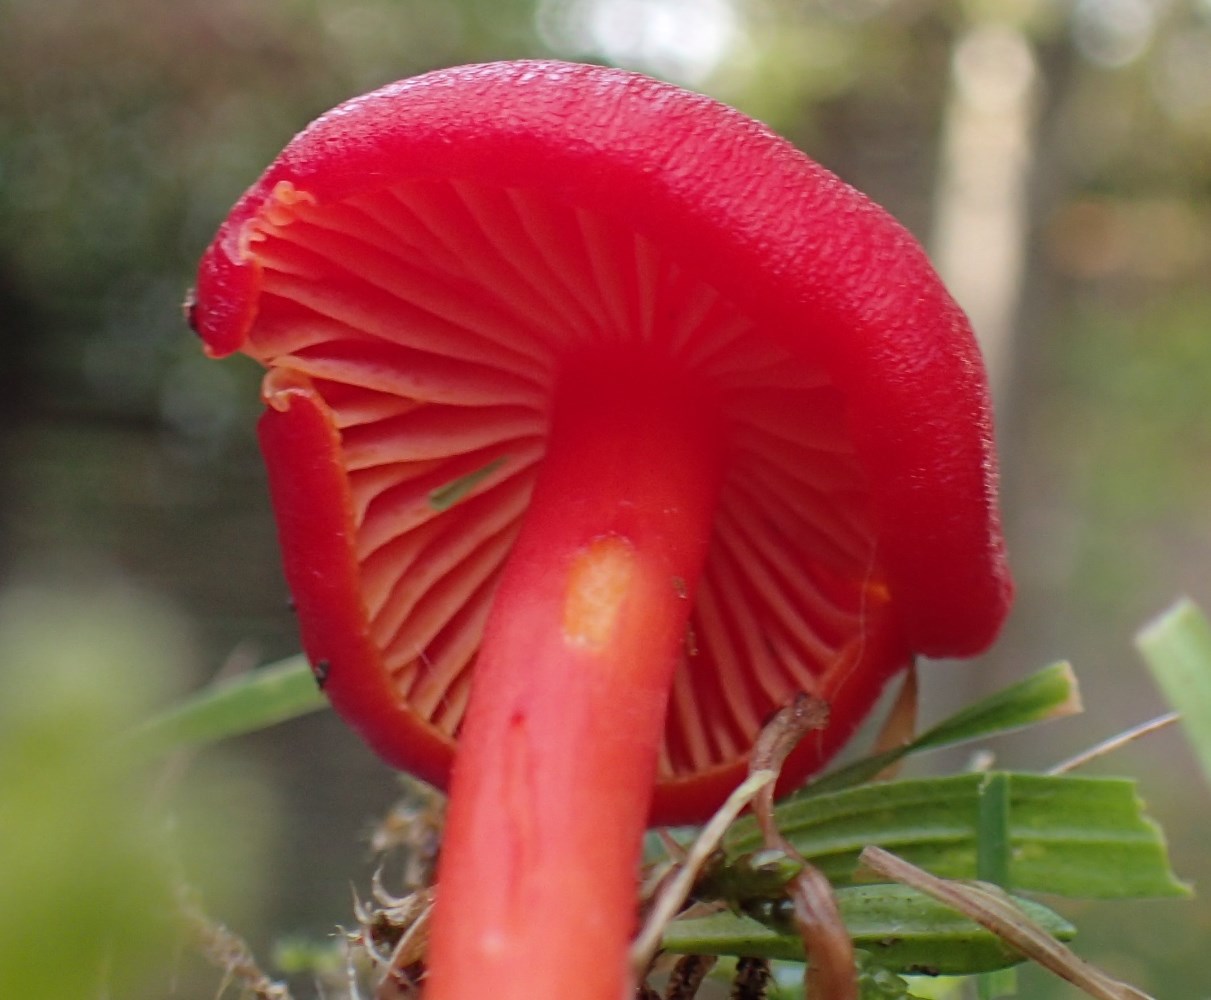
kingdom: Fungi
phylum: Basidiomycota
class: Agaricomycetes
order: Agaricales
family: Hygrophoraceae
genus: Hygrocybe
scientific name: Hygrocybe coccinea
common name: cinnober-vokshat
